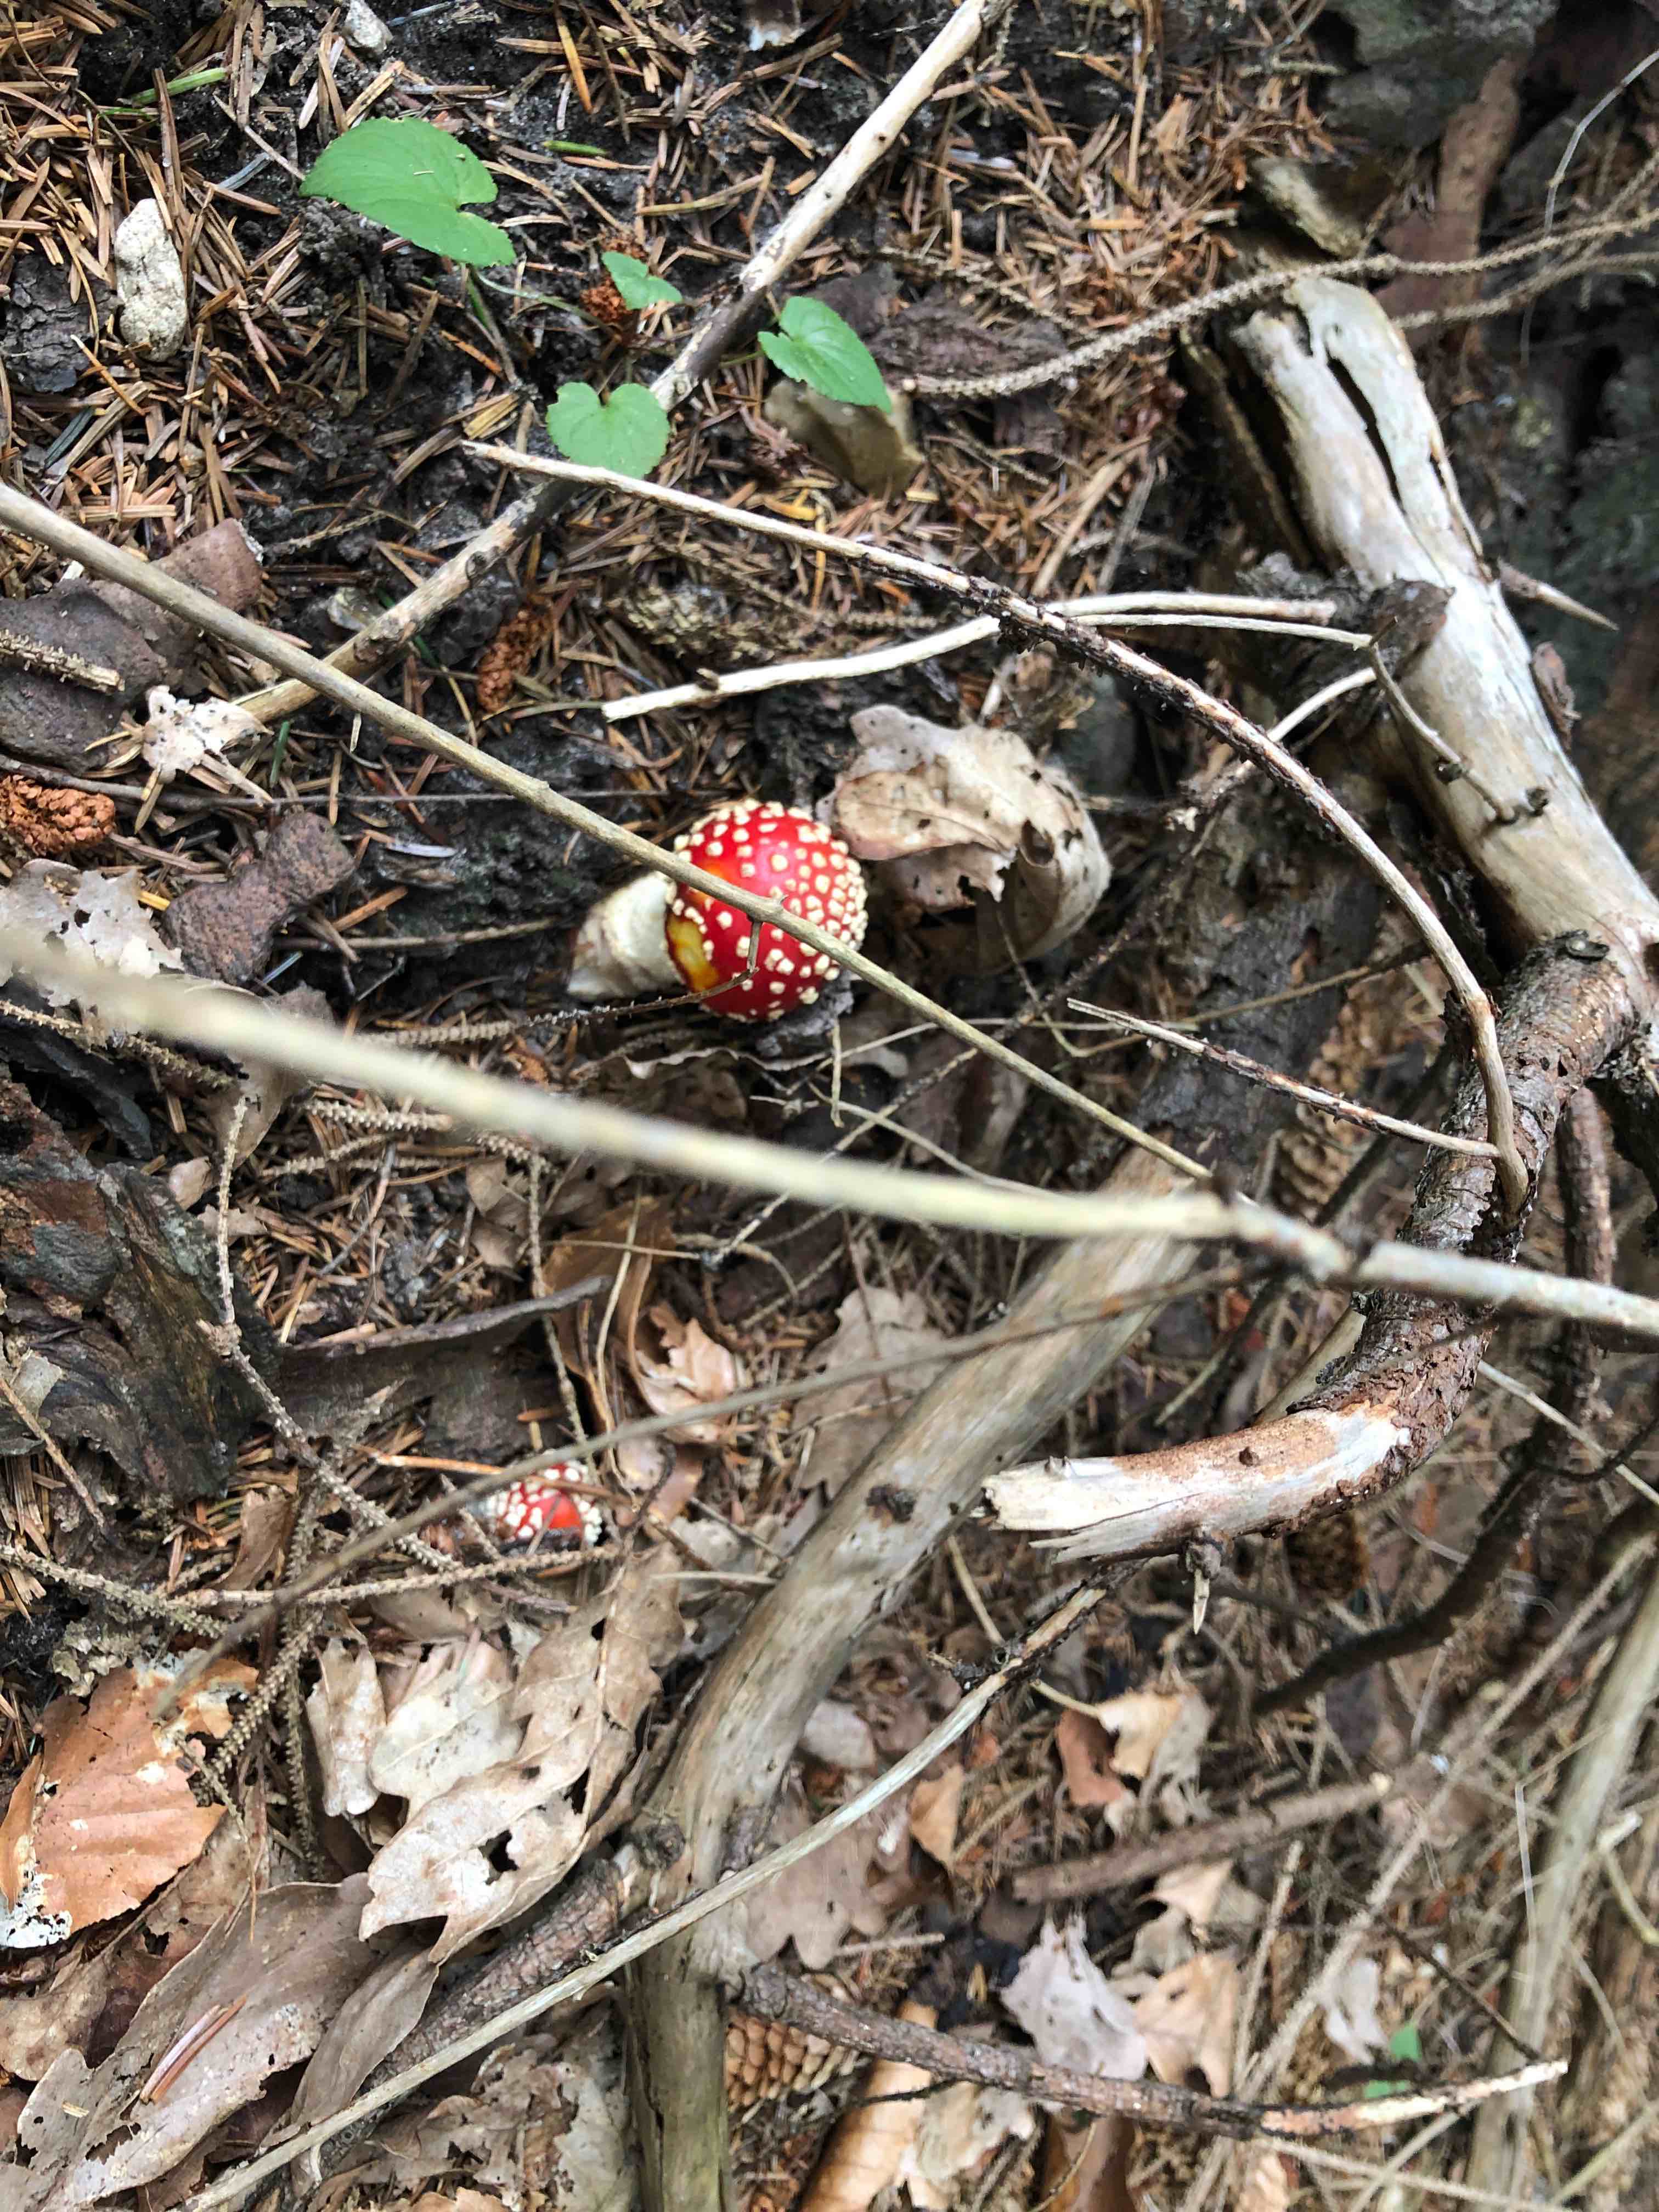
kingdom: Fungi
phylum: Basidiomycota
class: Agaricomycetes
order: Agaricales
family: Amanitaceae
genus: Amanita
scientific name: Amanita muscaria
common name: rød fluesvamp
